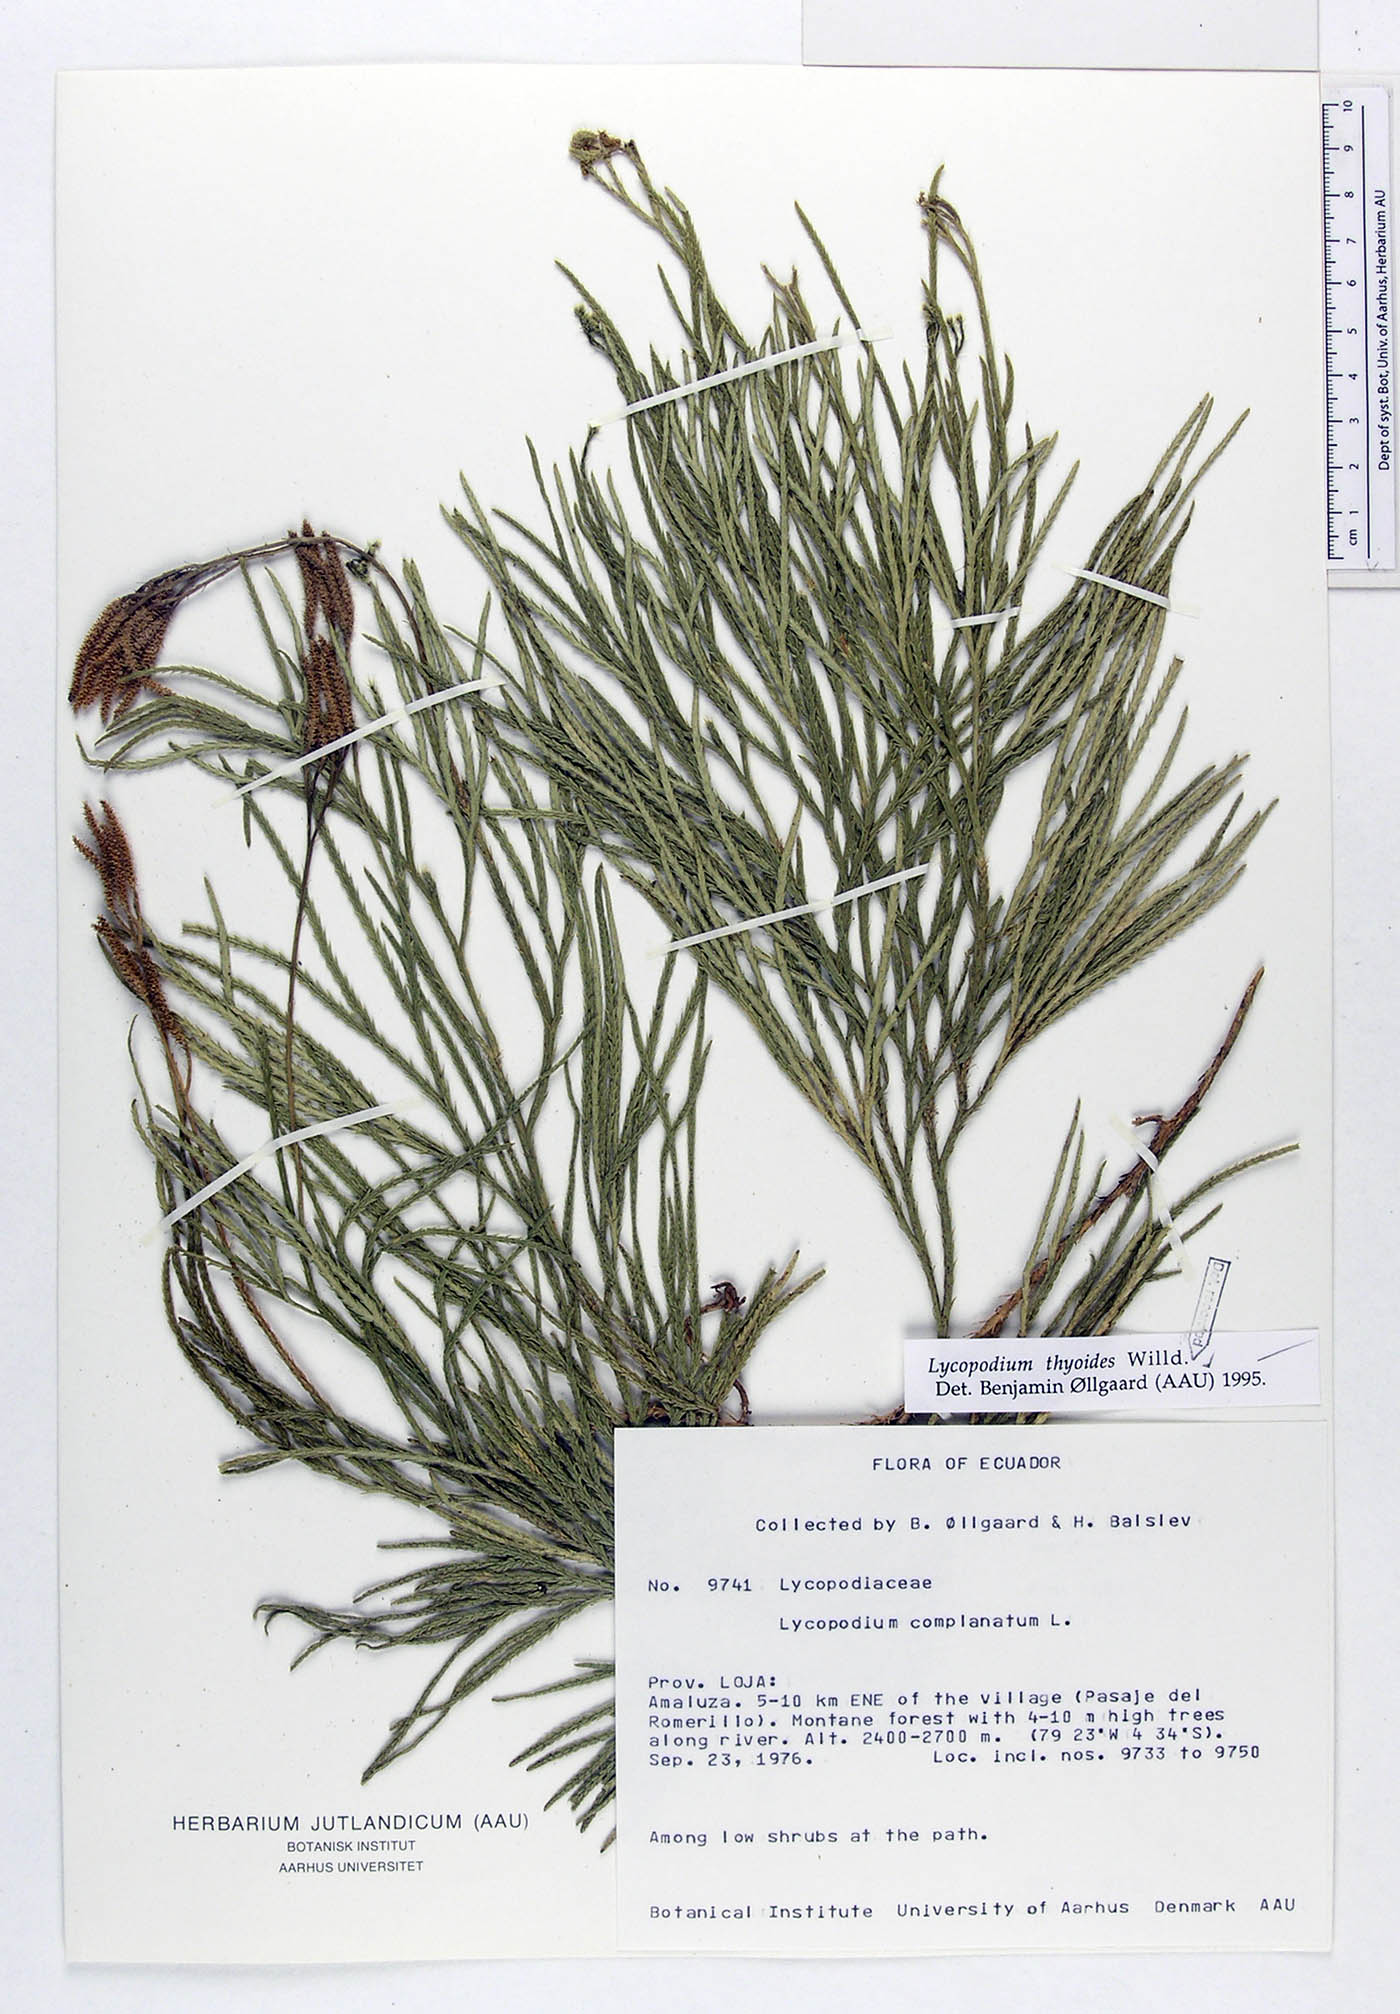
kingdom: Plantae
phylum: Tracheophyta
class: Lycopodiopsida
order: Lycopodiales
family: Lycopodiaceae
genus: Diphasiastrum
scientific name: Diphasiastrum thyoides
